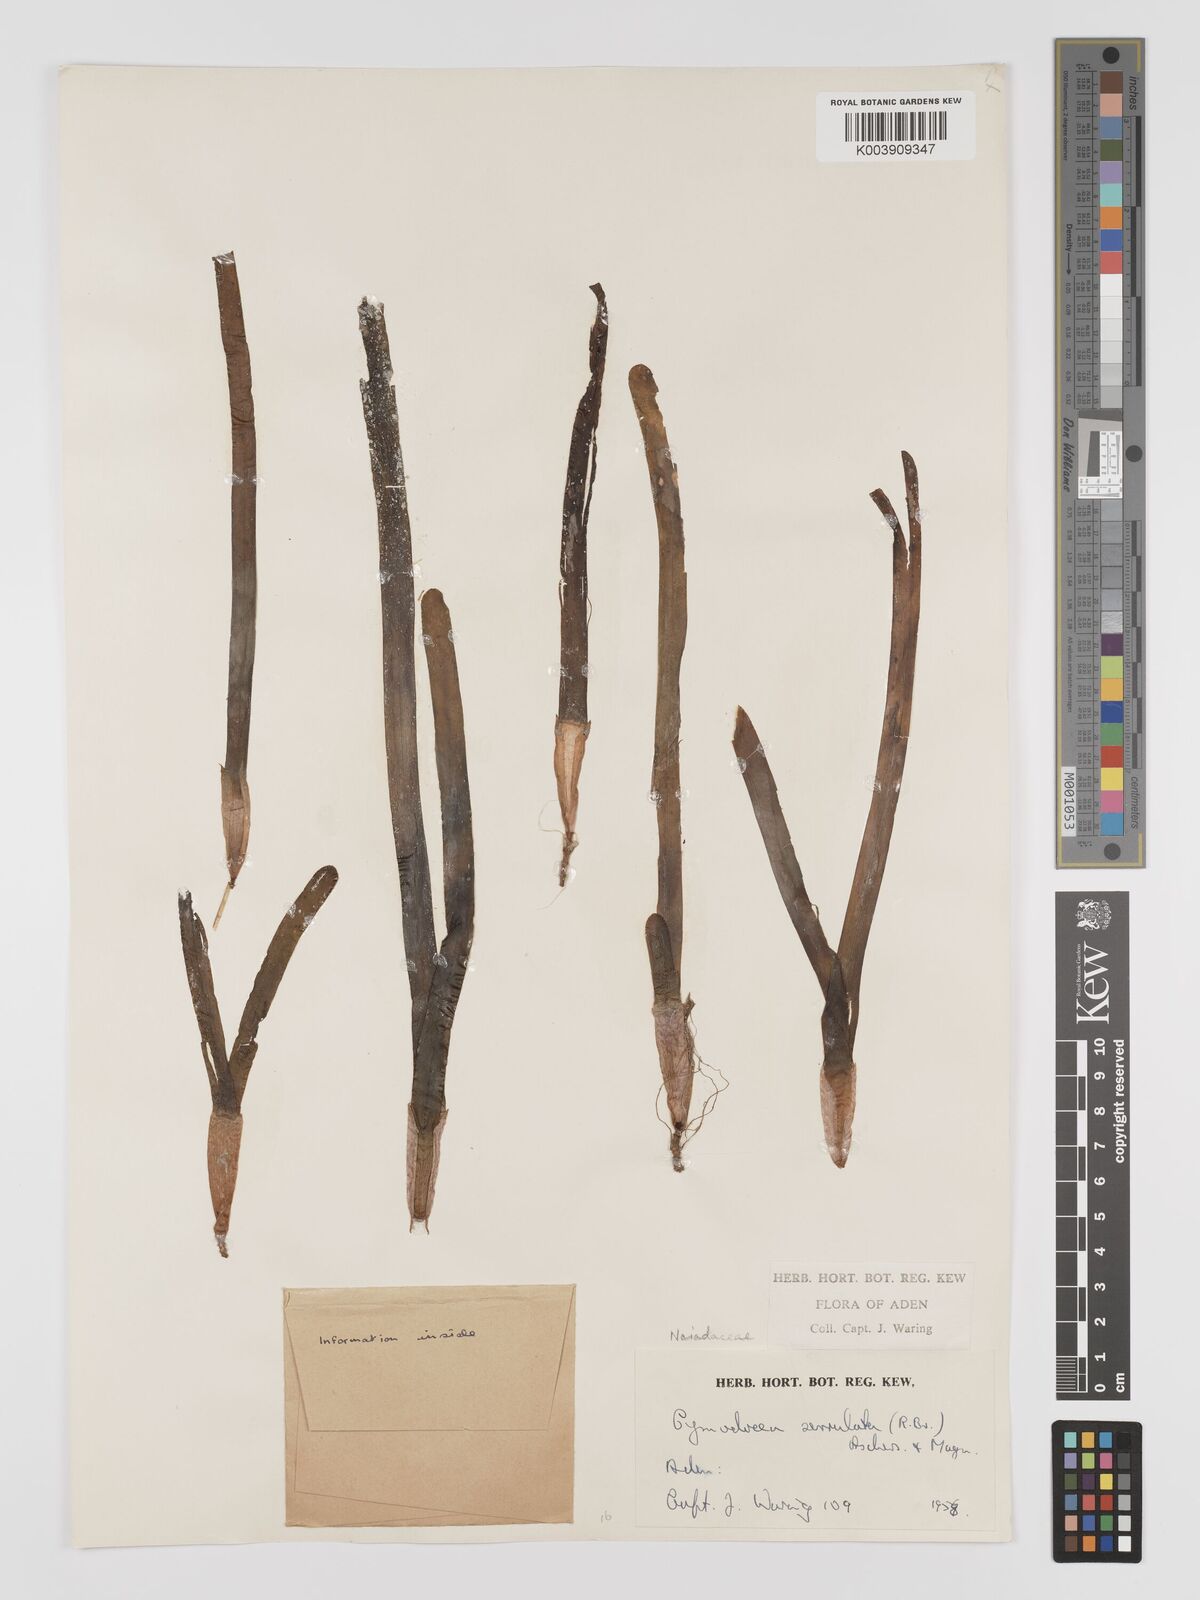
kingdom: Plantae
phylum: Tracheophyta
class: Liliopsida
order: Alismatales
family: Cymodoceaceae
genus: Oceana
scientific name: Oceana serrulata
